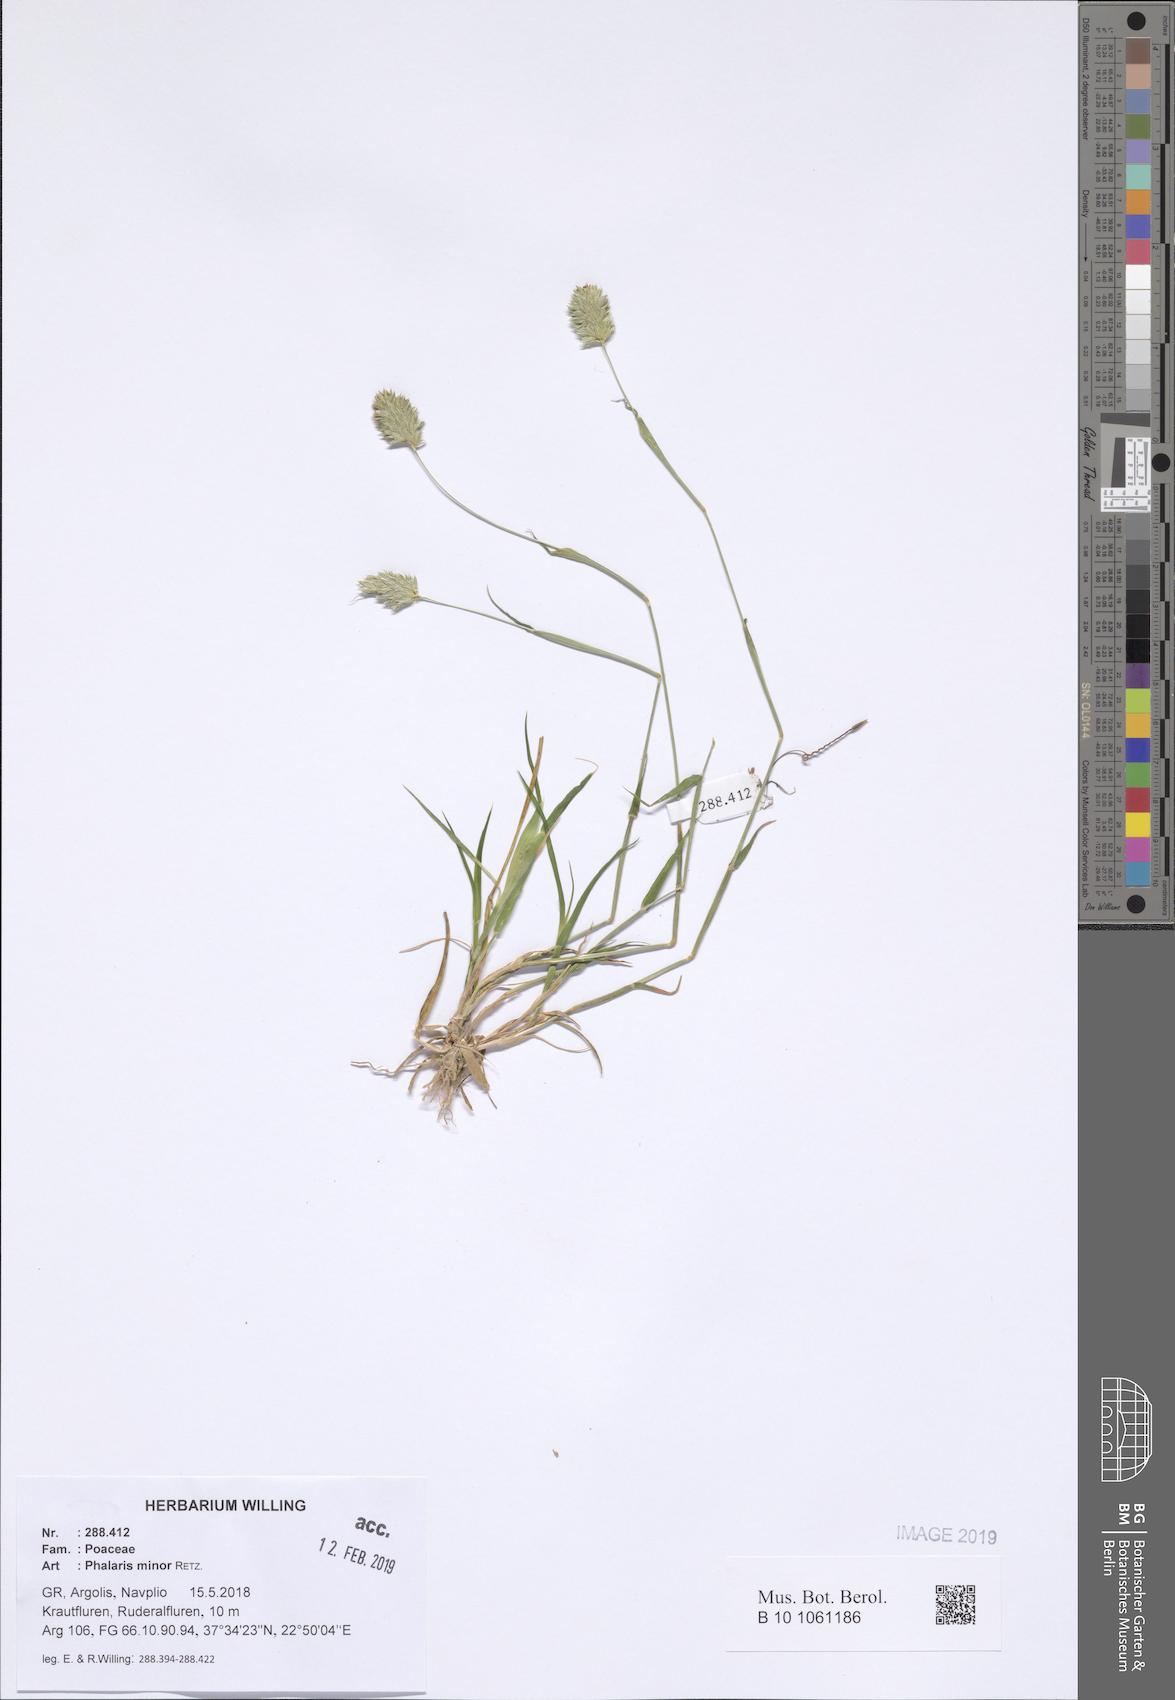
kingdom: Plantae
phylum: Tracheophyta
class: Liliopsida
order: Poales
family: Poaceae
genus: Phalaris
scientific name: Phalaris minor
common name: Littleseed canarygrass
